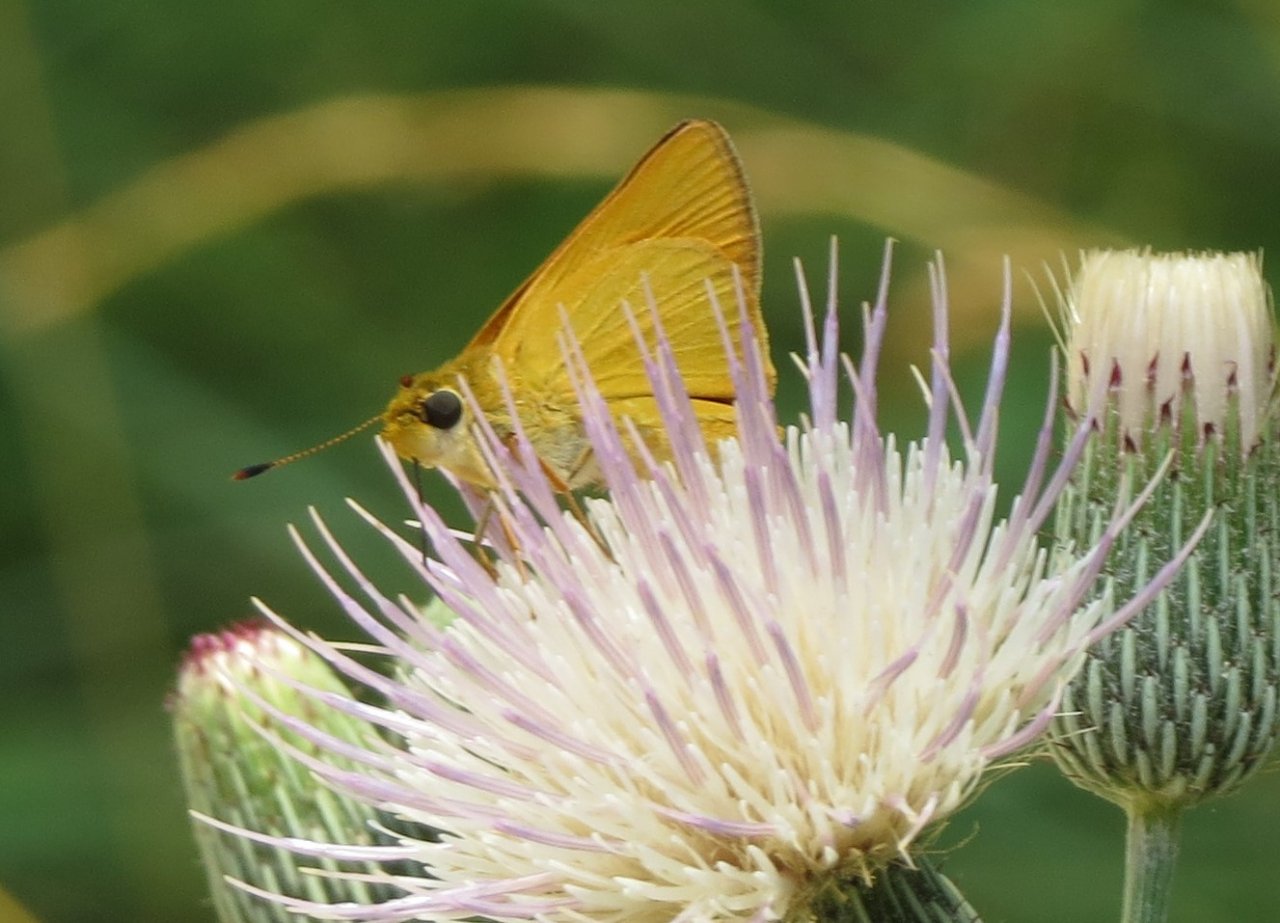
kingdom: Animalia
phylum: Arthropoda
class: Insecta
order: Lepidoptera
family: Hesperiidae
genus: Atrytone
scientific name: Atrytone delaware
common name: Delaware Skipper
